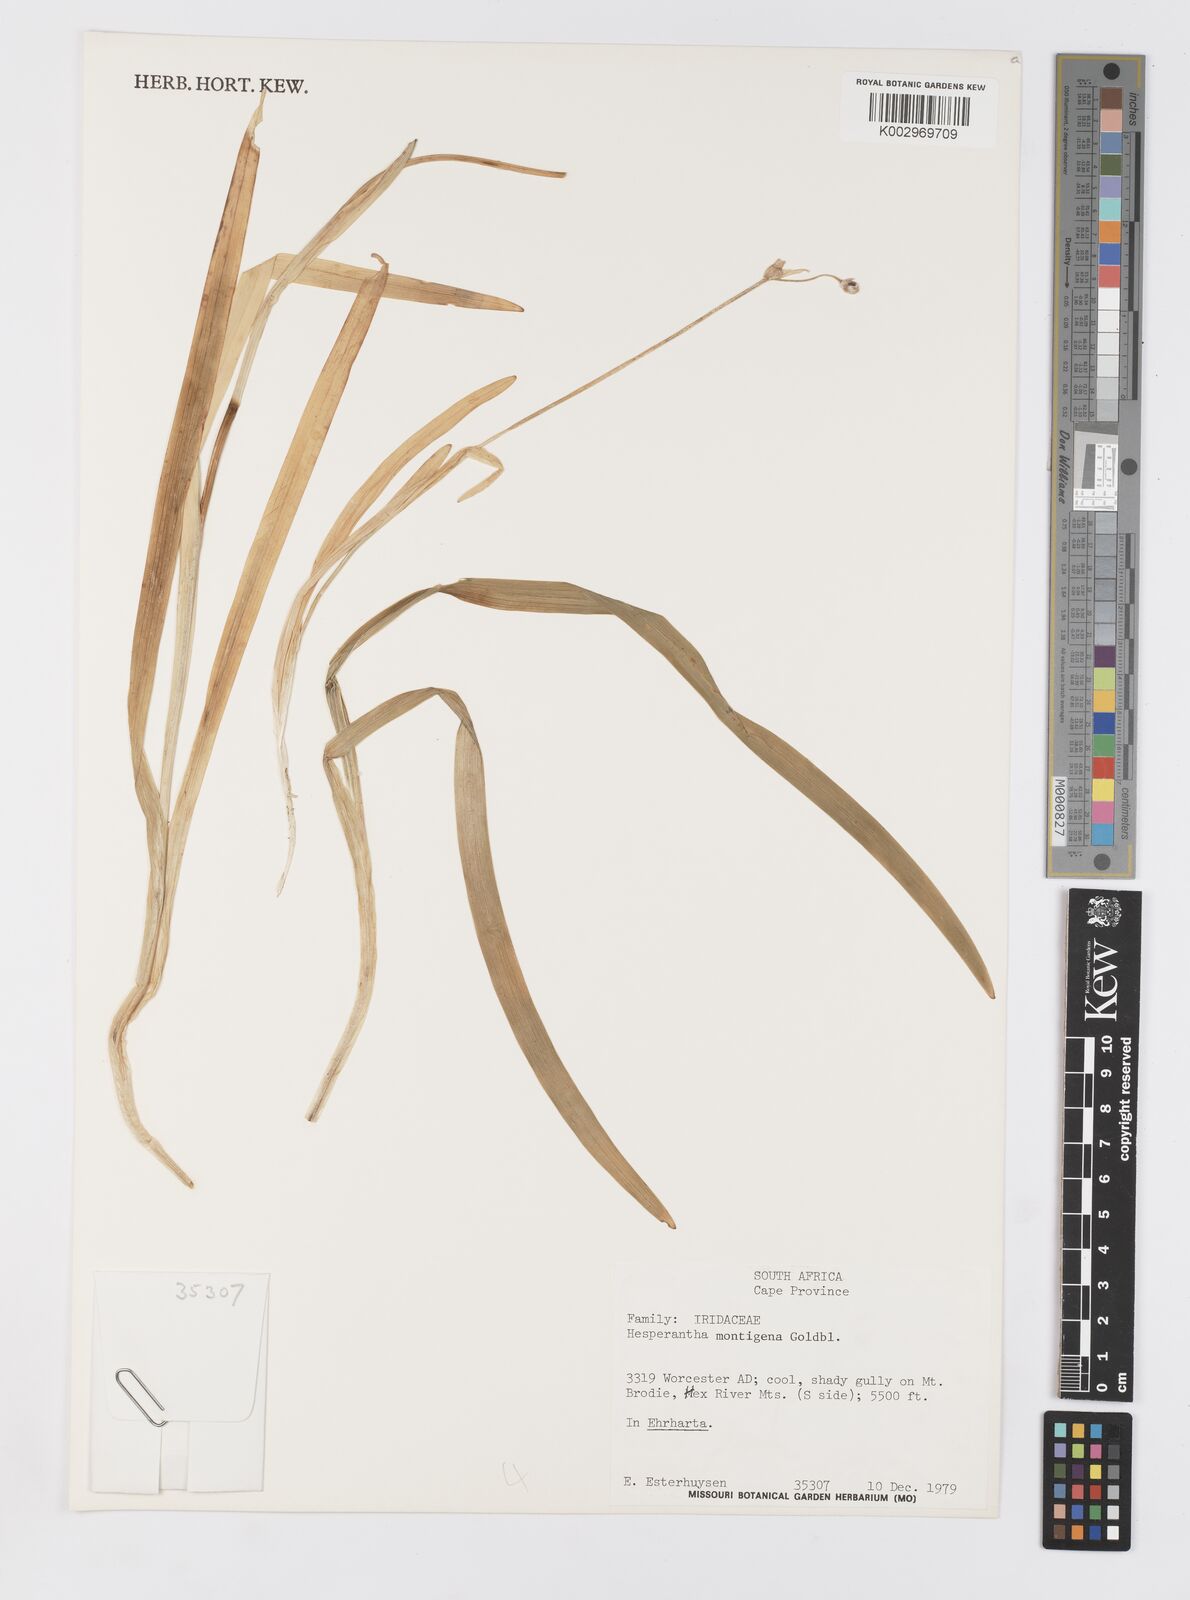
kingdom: Plantae
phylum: Tracheophyta
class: Liliopsida
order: Asparagales
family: Iridaceae
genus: Hesperantha
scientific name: Hesperantha montigena
